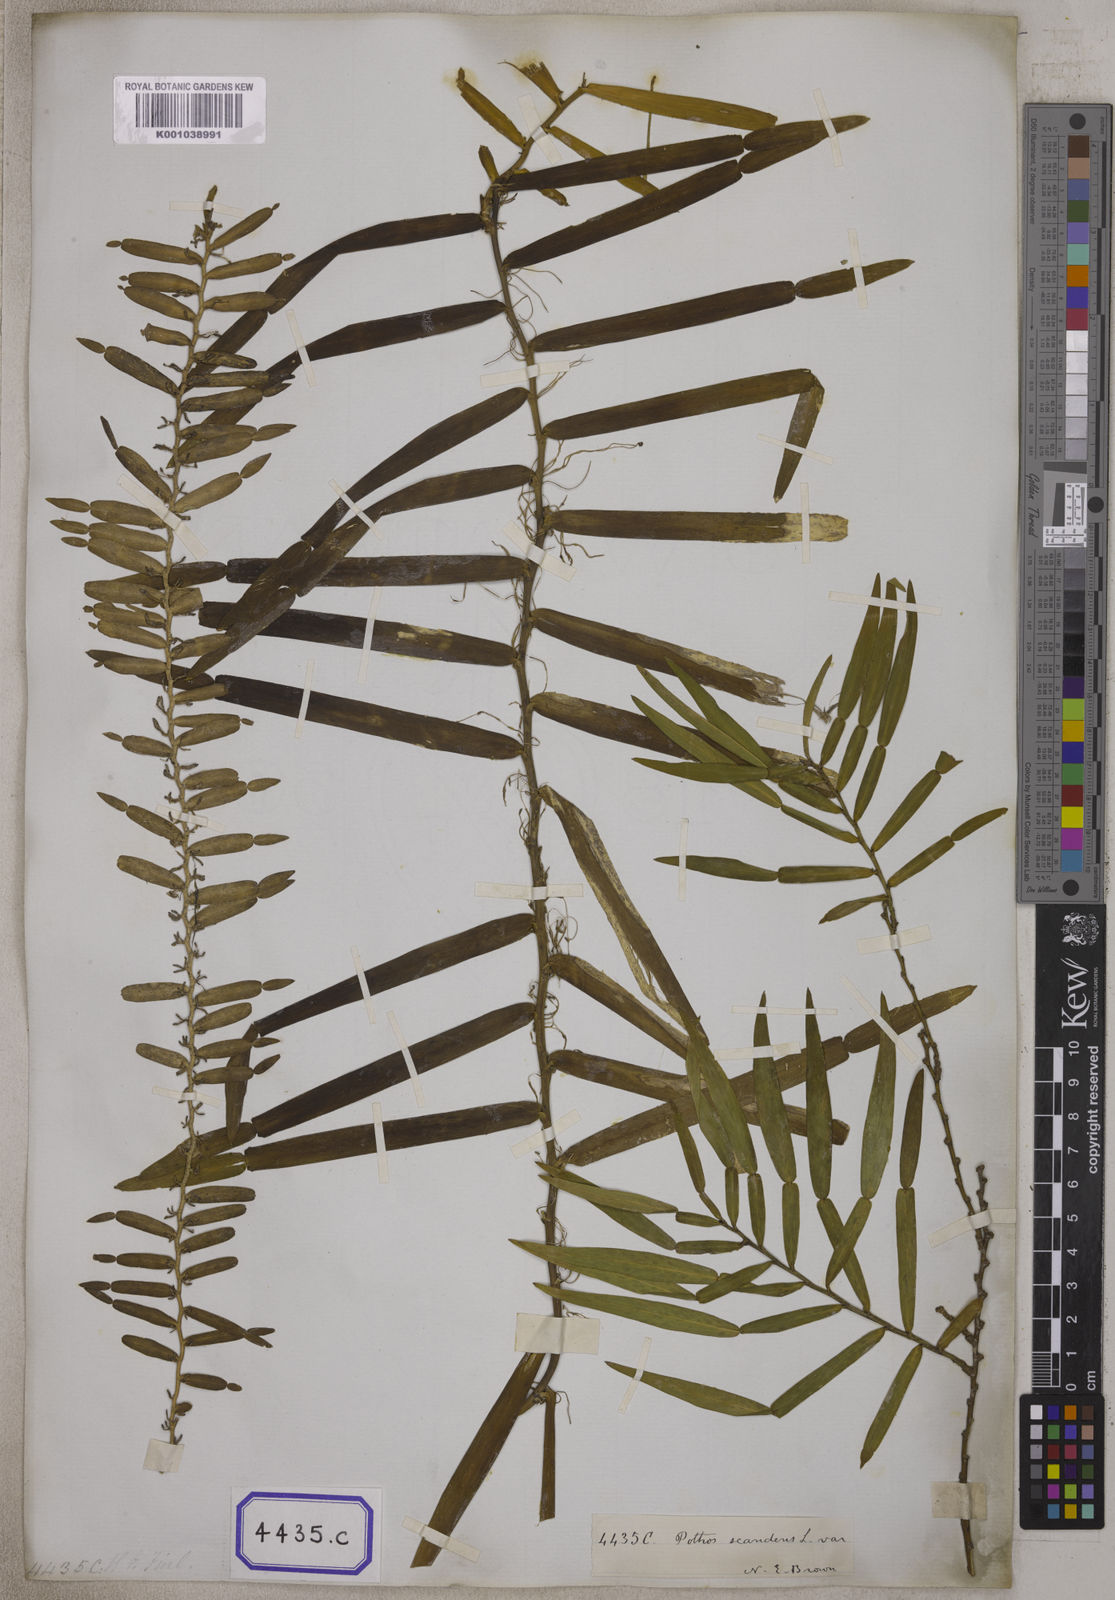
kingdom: Plantae
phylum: Tracheophyta
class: Liliopsida
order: Alismatales
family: Araceae
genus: Pothos
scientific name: Pothos scandens
